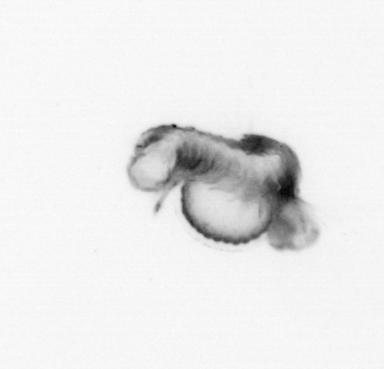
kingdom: Animalia
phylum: Annelida
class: Polychaeta
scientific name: Polychaeta
